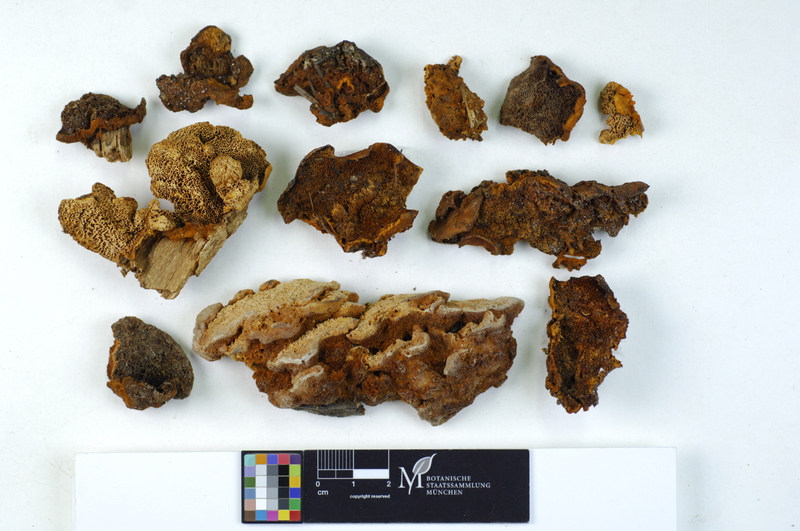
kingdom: Plantae
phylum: Tracheophyta
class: Pinopsida
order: Pinales
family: Pinaceae
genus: Picea
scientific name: Picea
